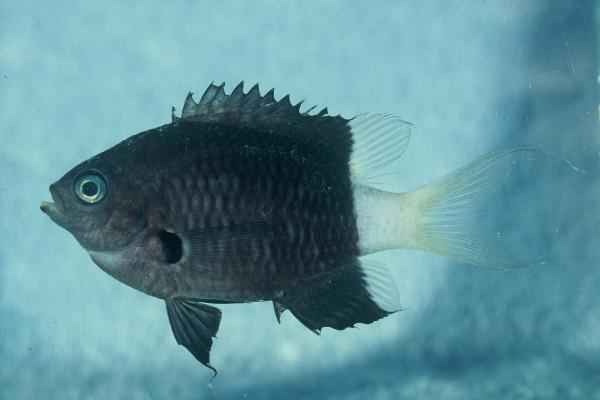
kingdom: Animalia
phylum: Chordata
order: Perciformes
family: Pomacentridae
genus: Chromis
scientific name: Chromis margaritifer
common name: Bicolor chromis
